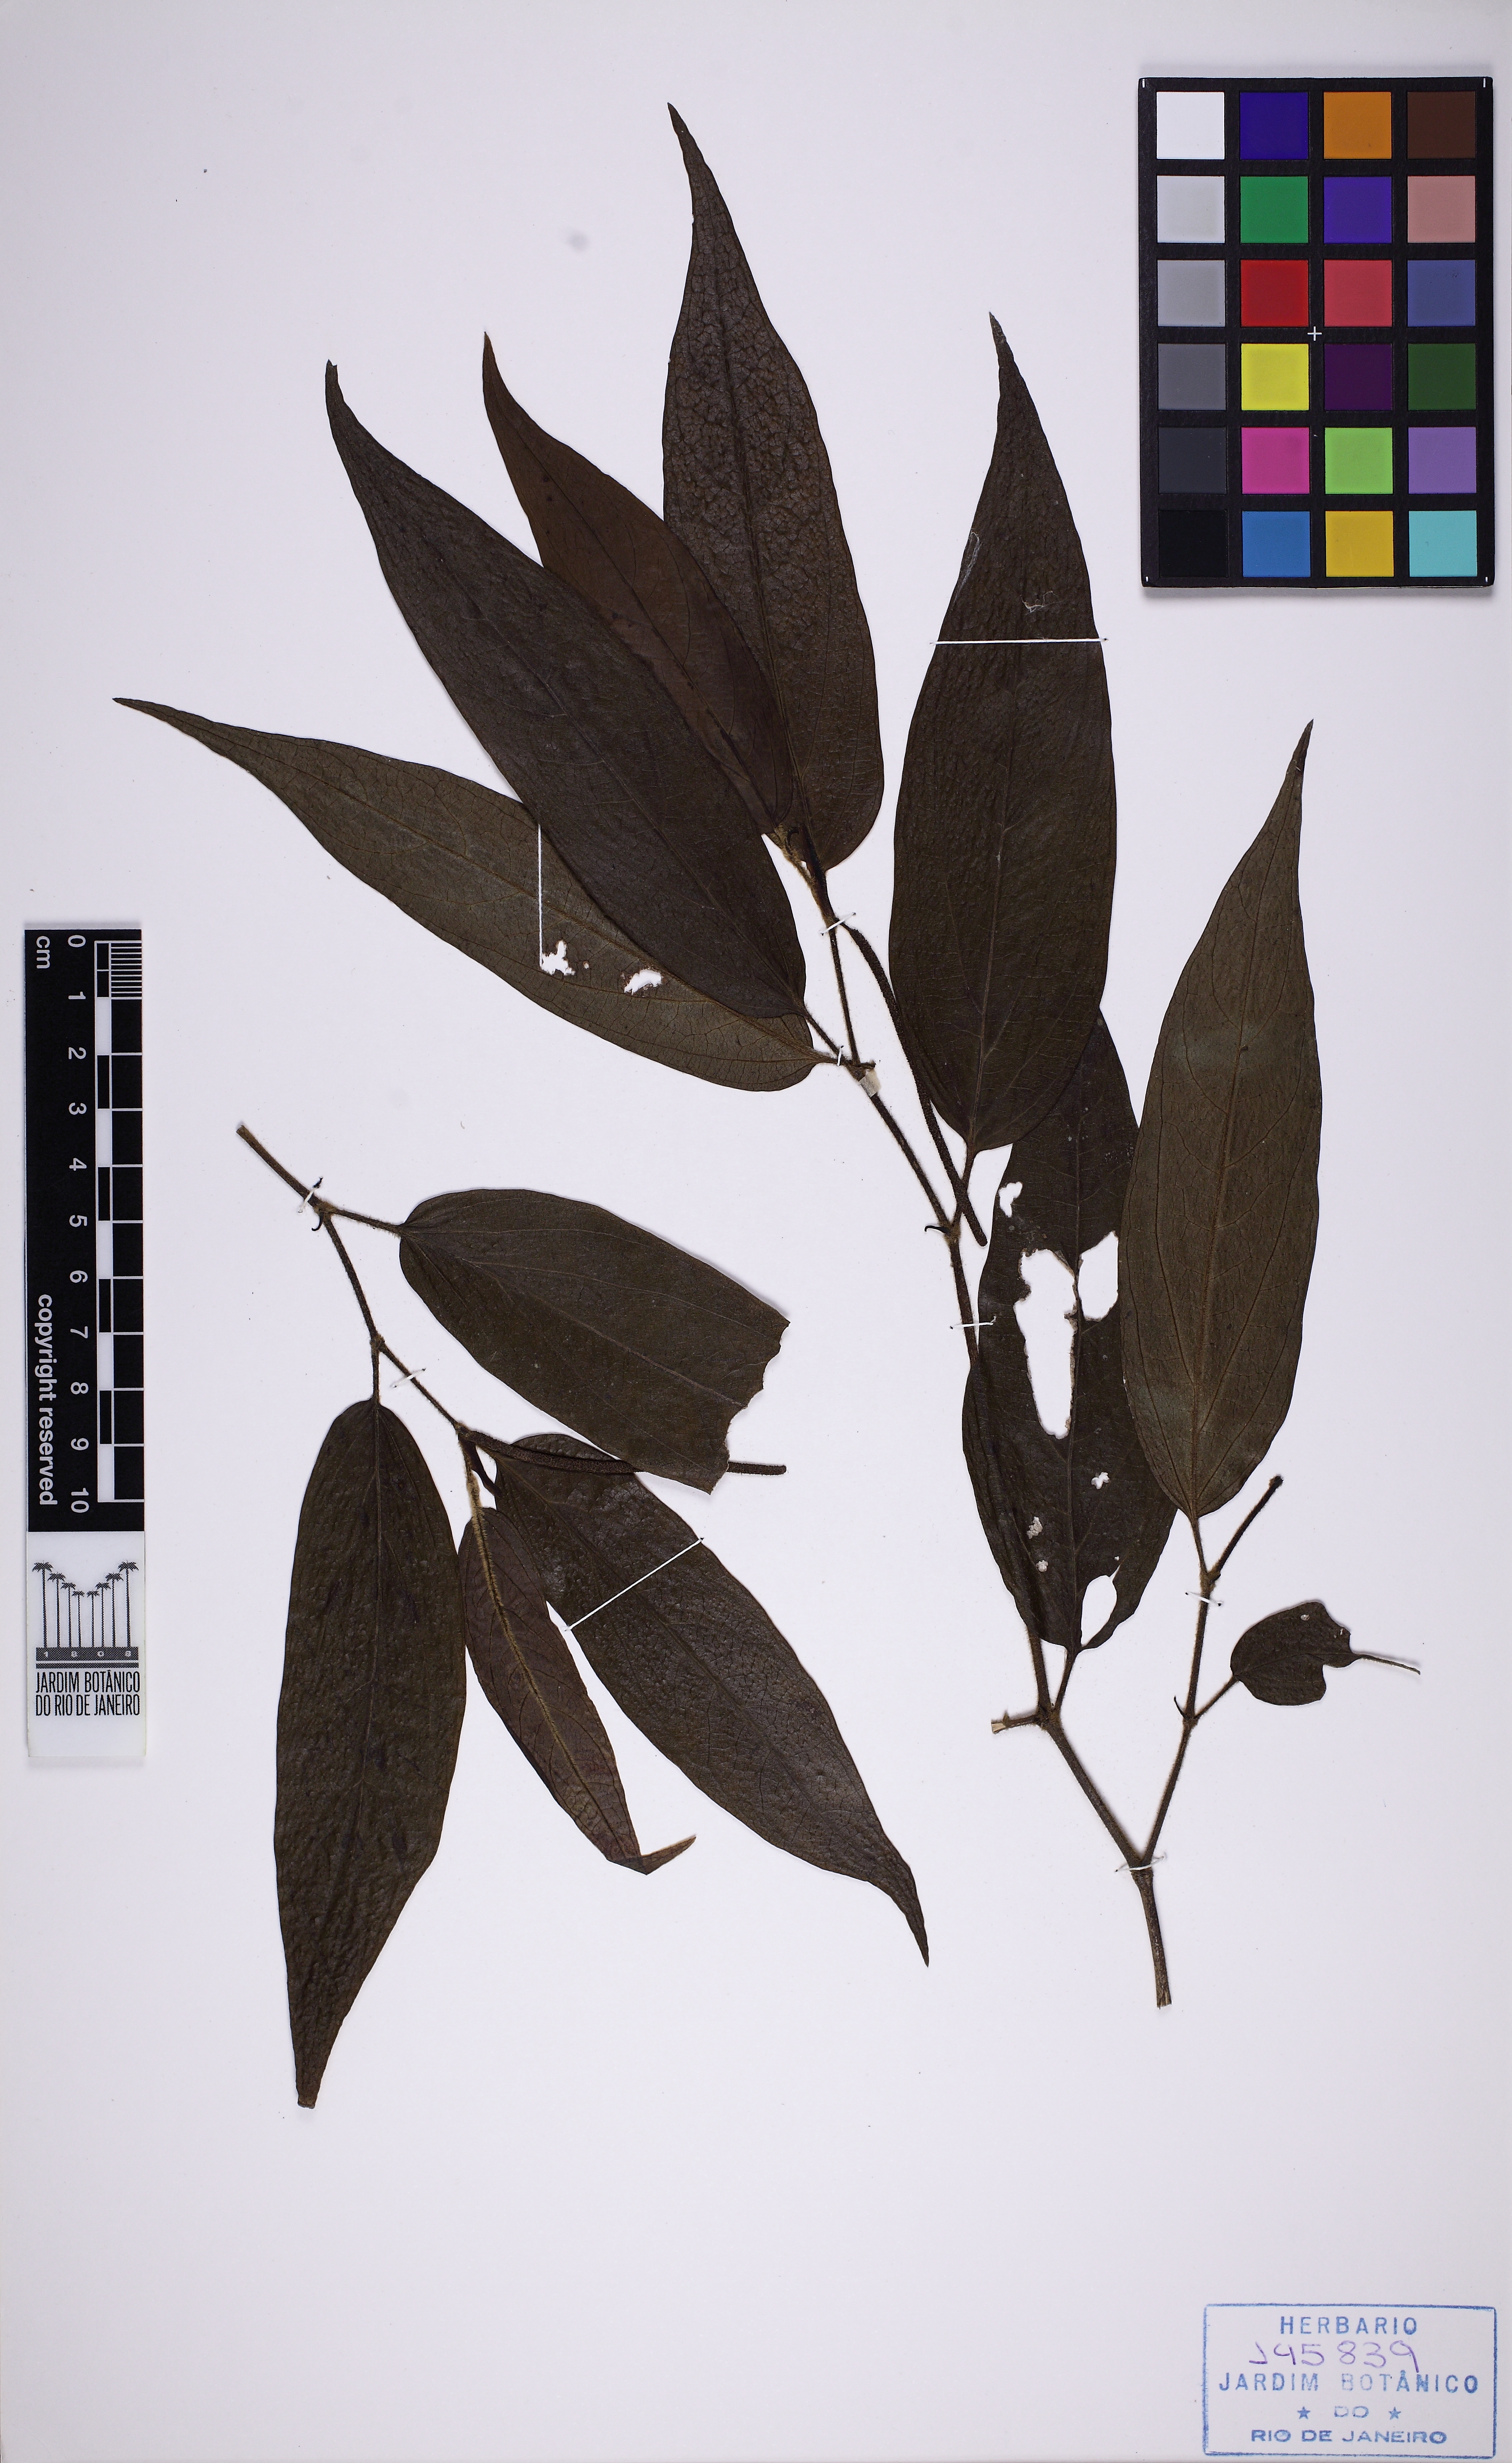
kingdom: Plantae
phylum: Tracheophyta
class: Magnoliopsida
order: Piperales
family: Piperaceae
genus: Piper
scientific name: Piper lepturum
